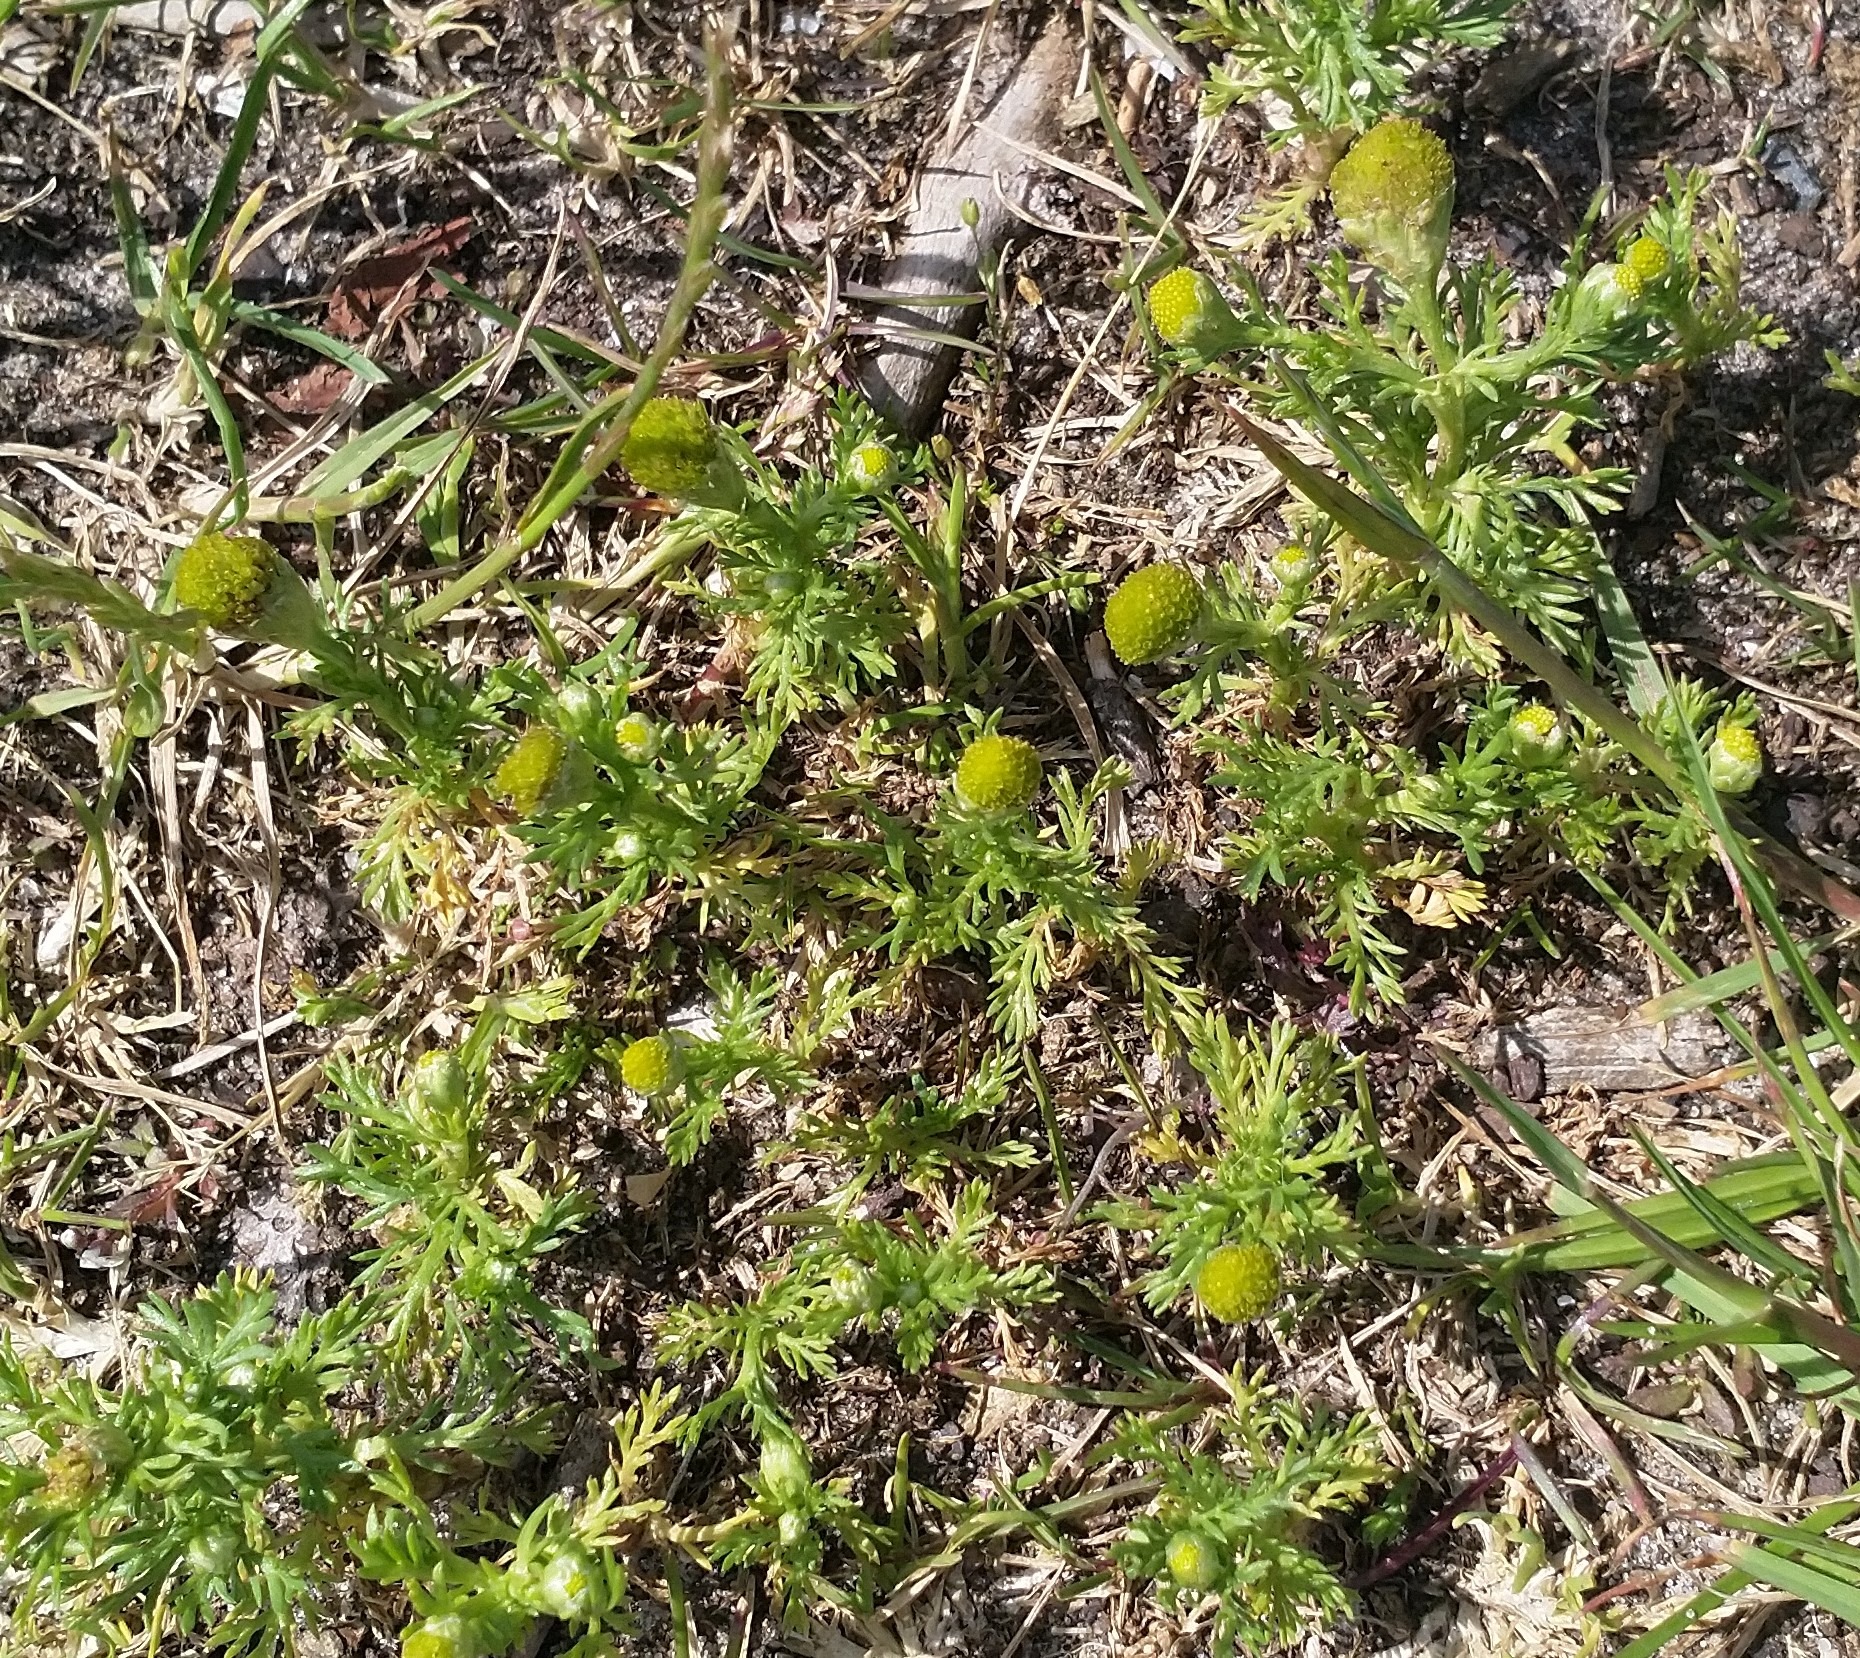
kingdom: Plantae
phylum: Tracheophyta
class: Magnoliopsida
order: Asterales
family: Asteraceae
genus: Matricaria
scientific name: Matricaria discoidea
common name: Skive-kamille
